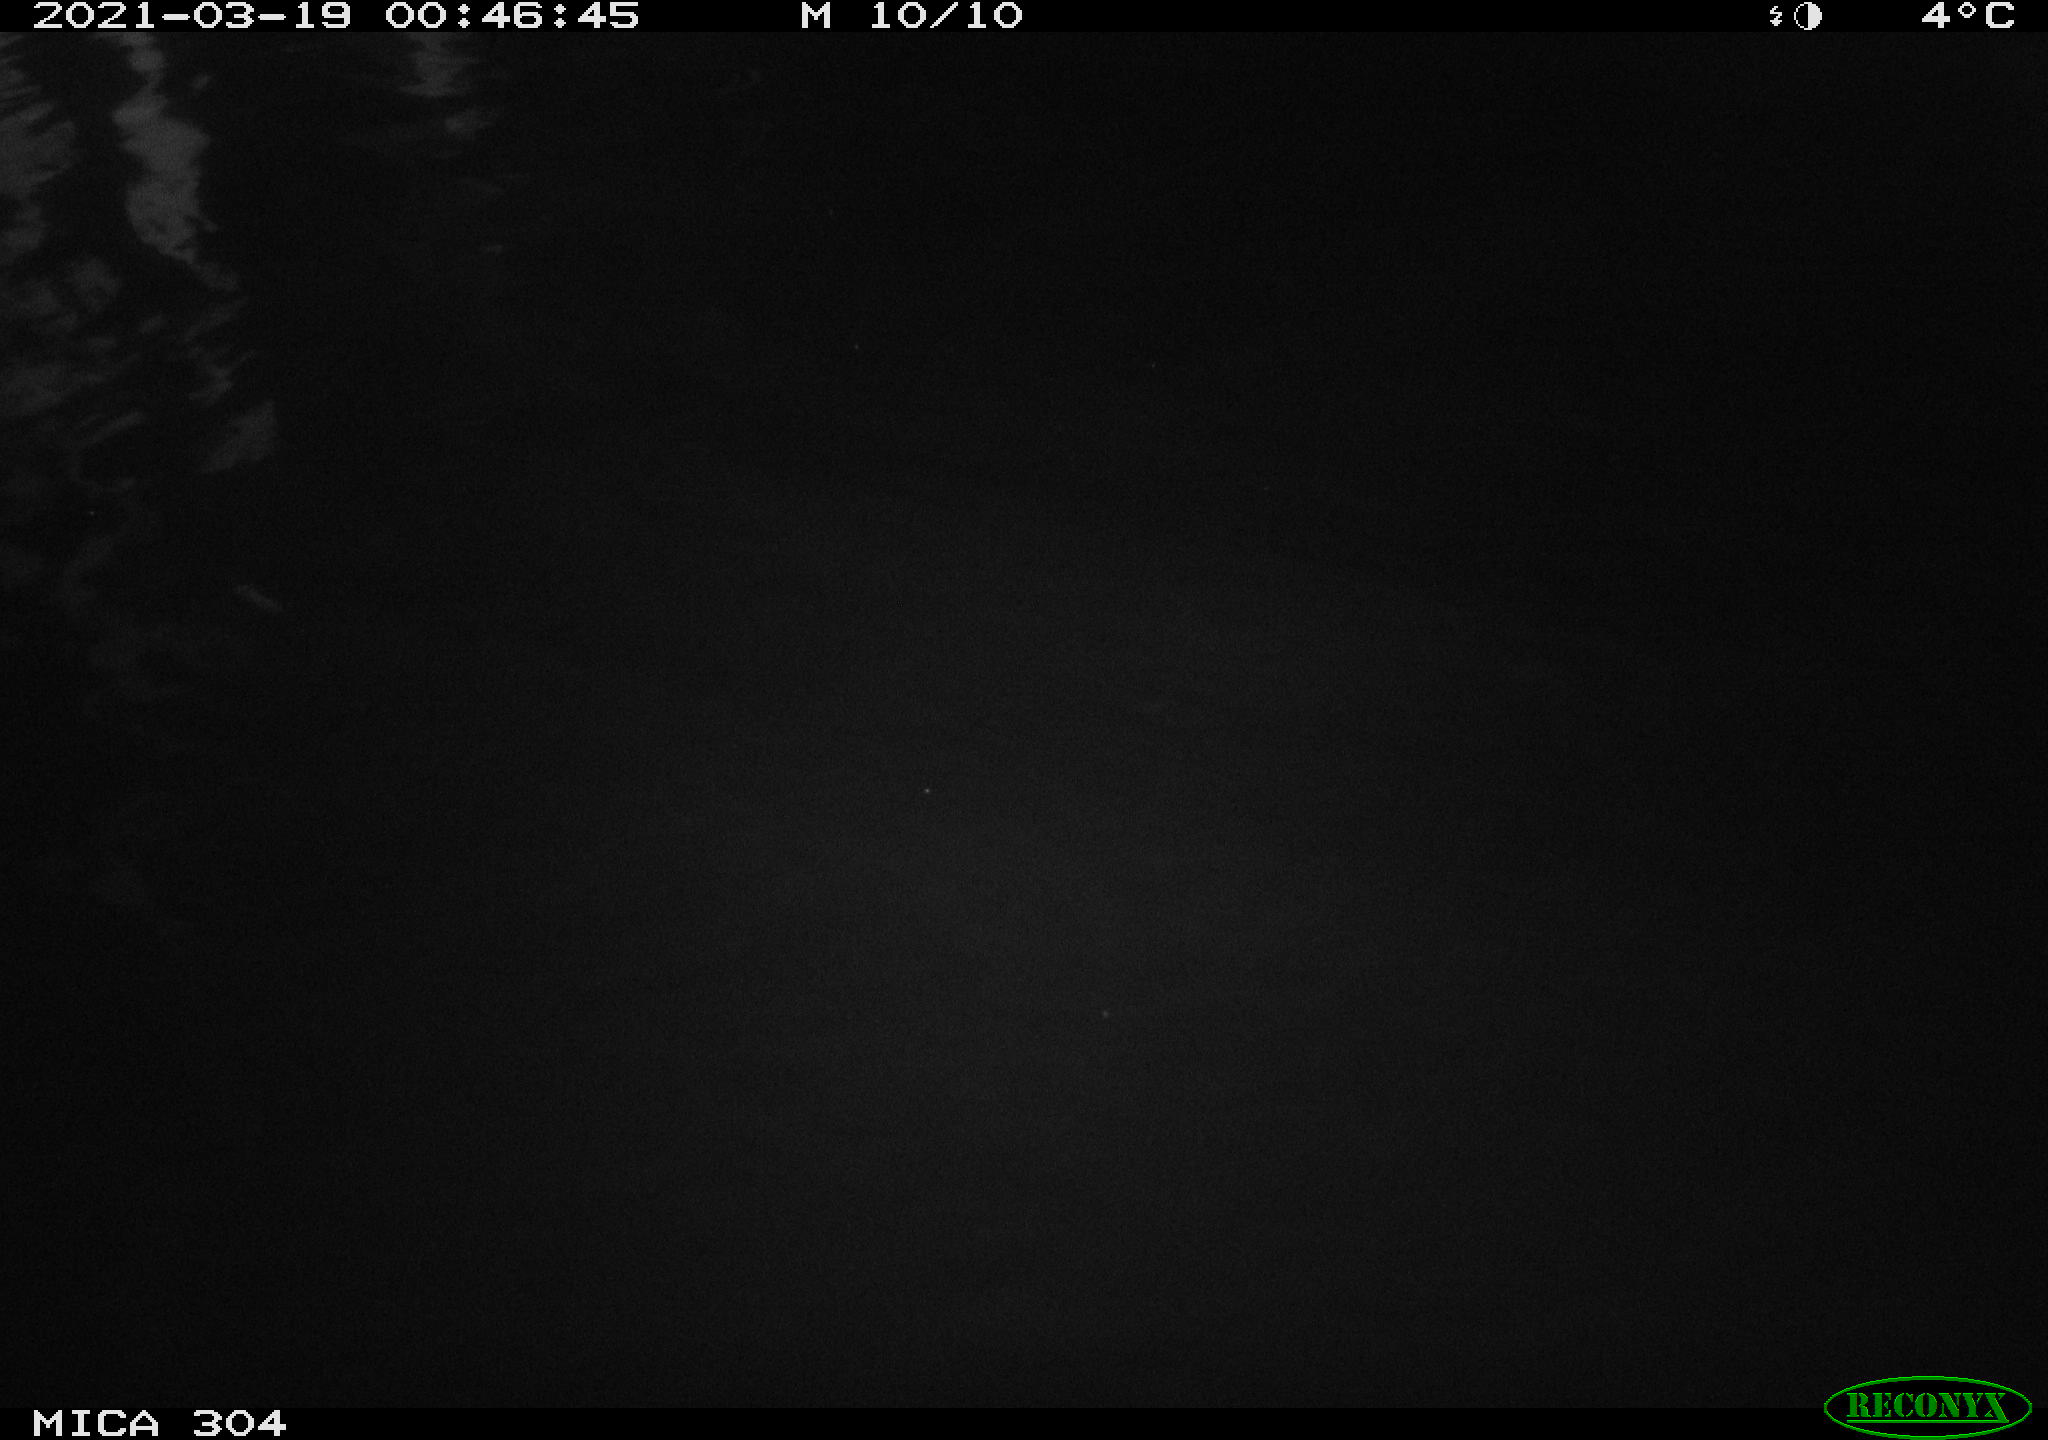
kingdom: Animalia
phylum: Chordata
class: Aves
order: Anseriformes
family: Anatidae
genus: Anas
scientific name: Anas platyrhynchos
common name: Mallard
